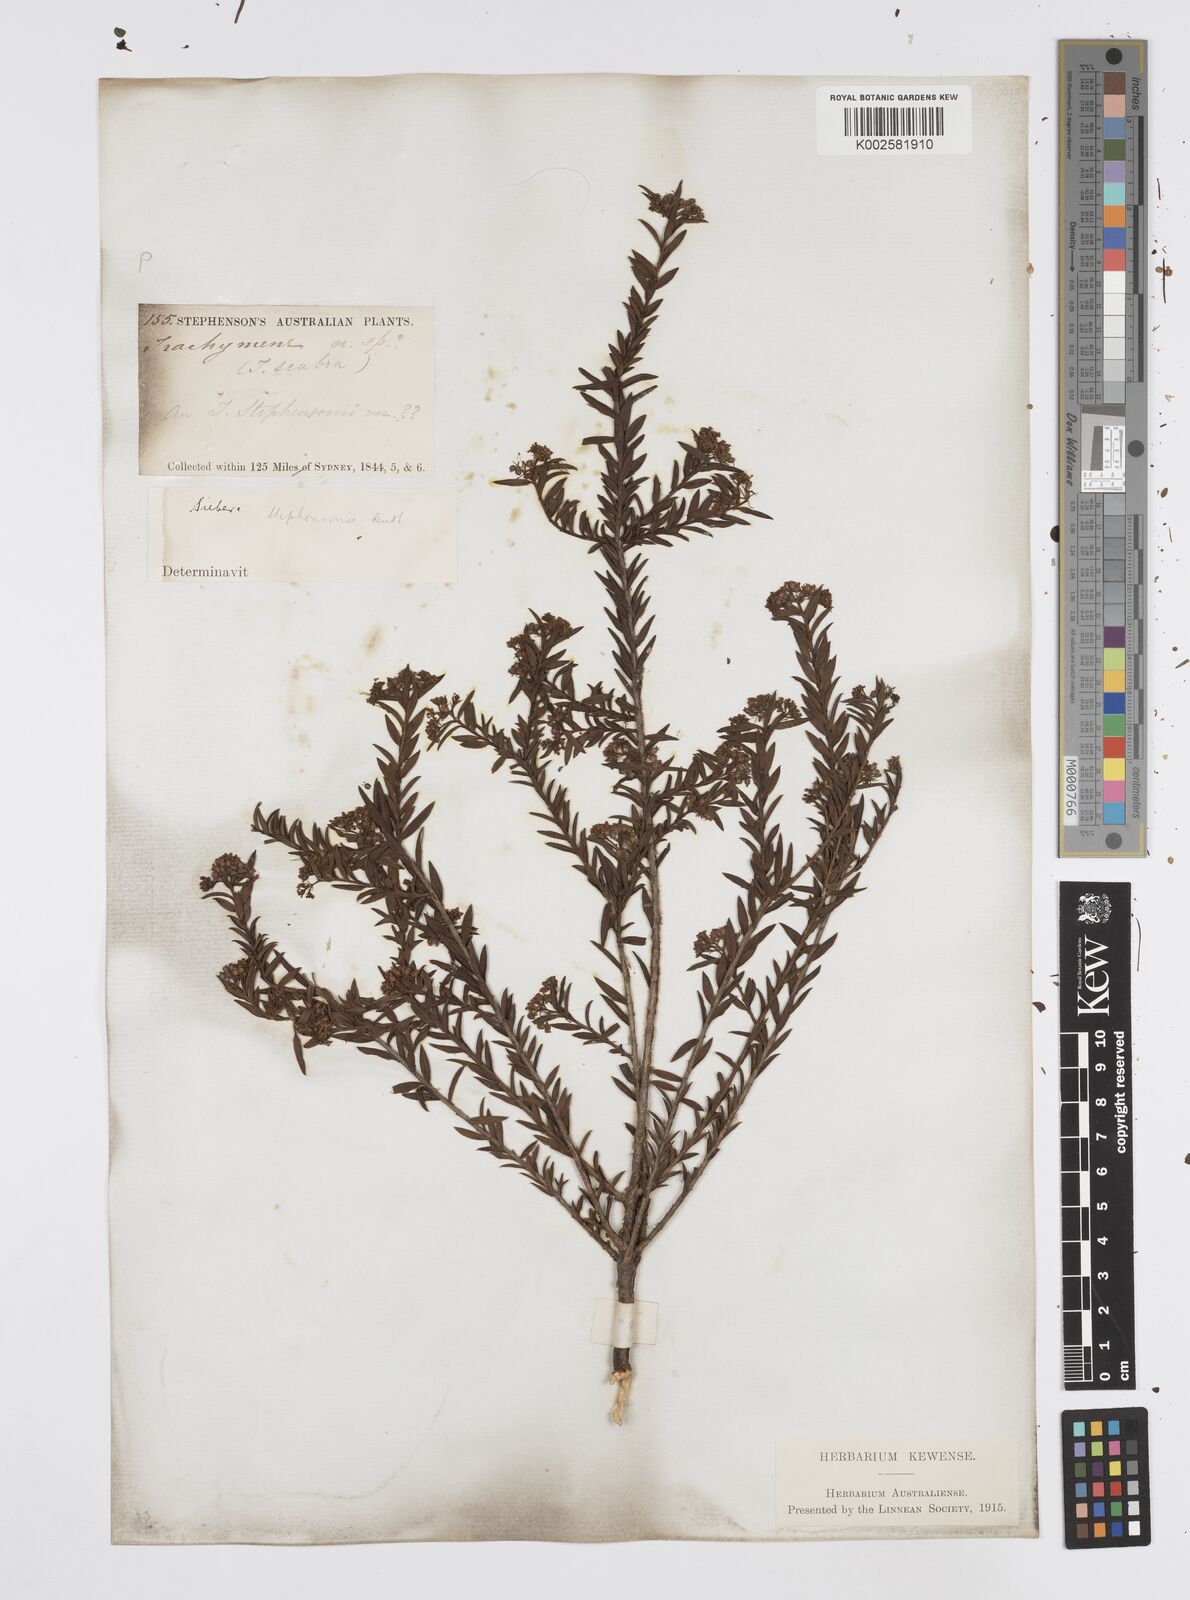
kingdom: Plantae
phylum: Tracheophyta
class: Magnoliopsida
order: Apiales
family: Apiaceae
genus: Platysace
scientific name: Platysace stephensonii
